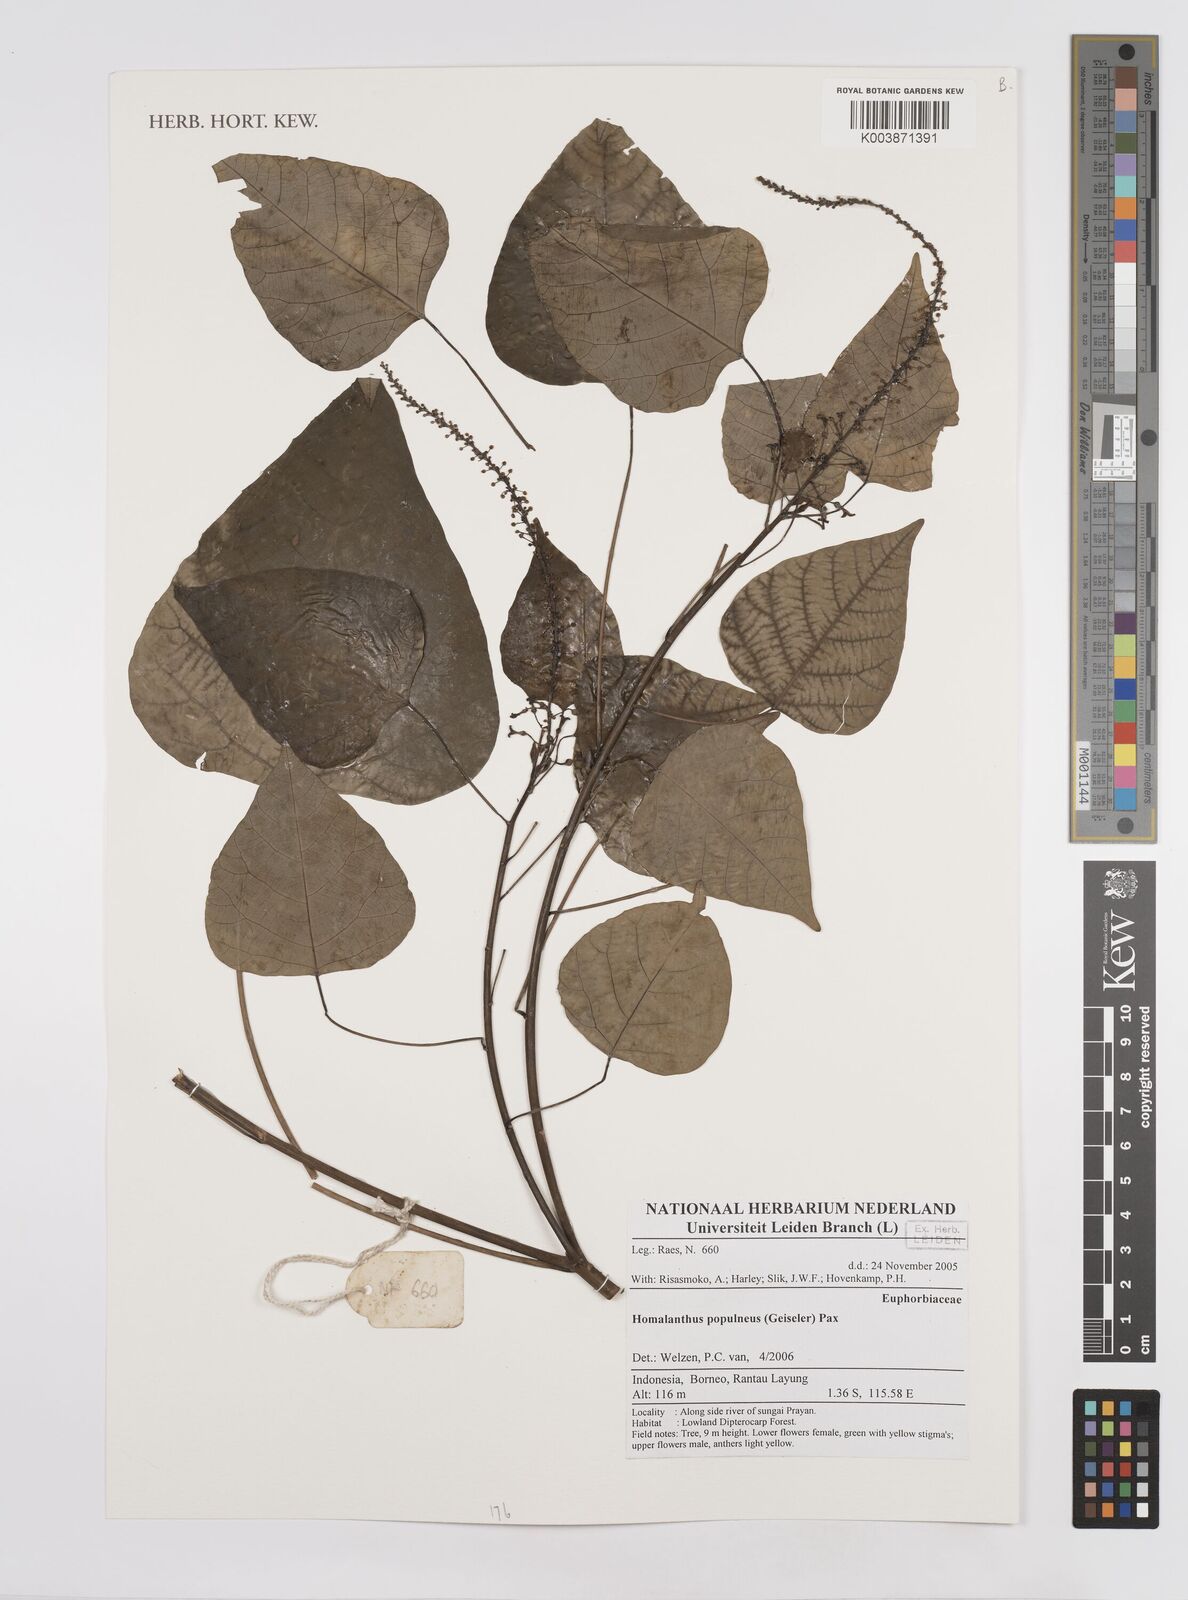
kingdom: Plantae
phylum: Tracheophyta
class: Magnoliopsida
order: Malpighiales
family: Euphorbiaceae
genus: Homalanthus
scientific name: Homalanthus populneus
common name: Spurge
